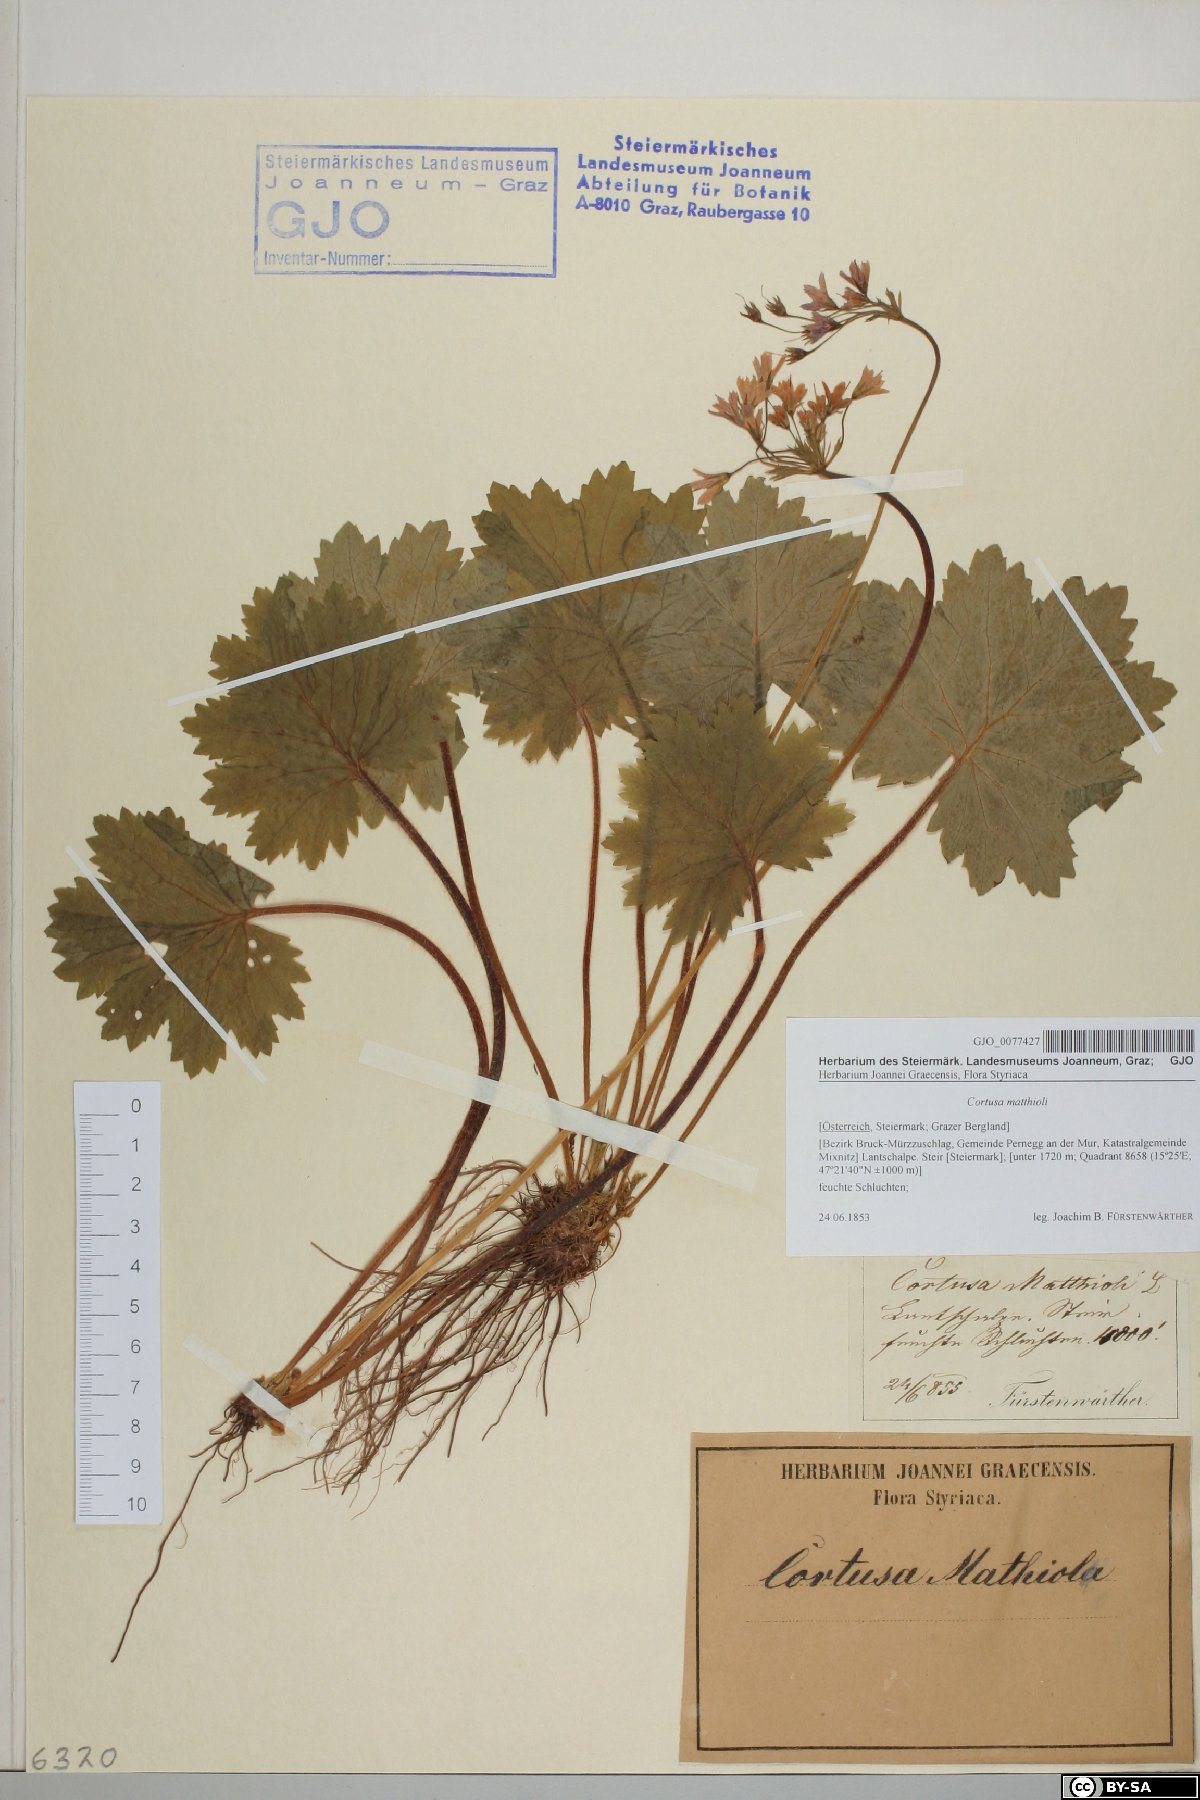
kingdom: Plantae
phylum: Tracheophyta
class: Magnoliopsida
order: Ericales
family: Primulaceae
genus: Primula
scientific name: Primula matthioli
